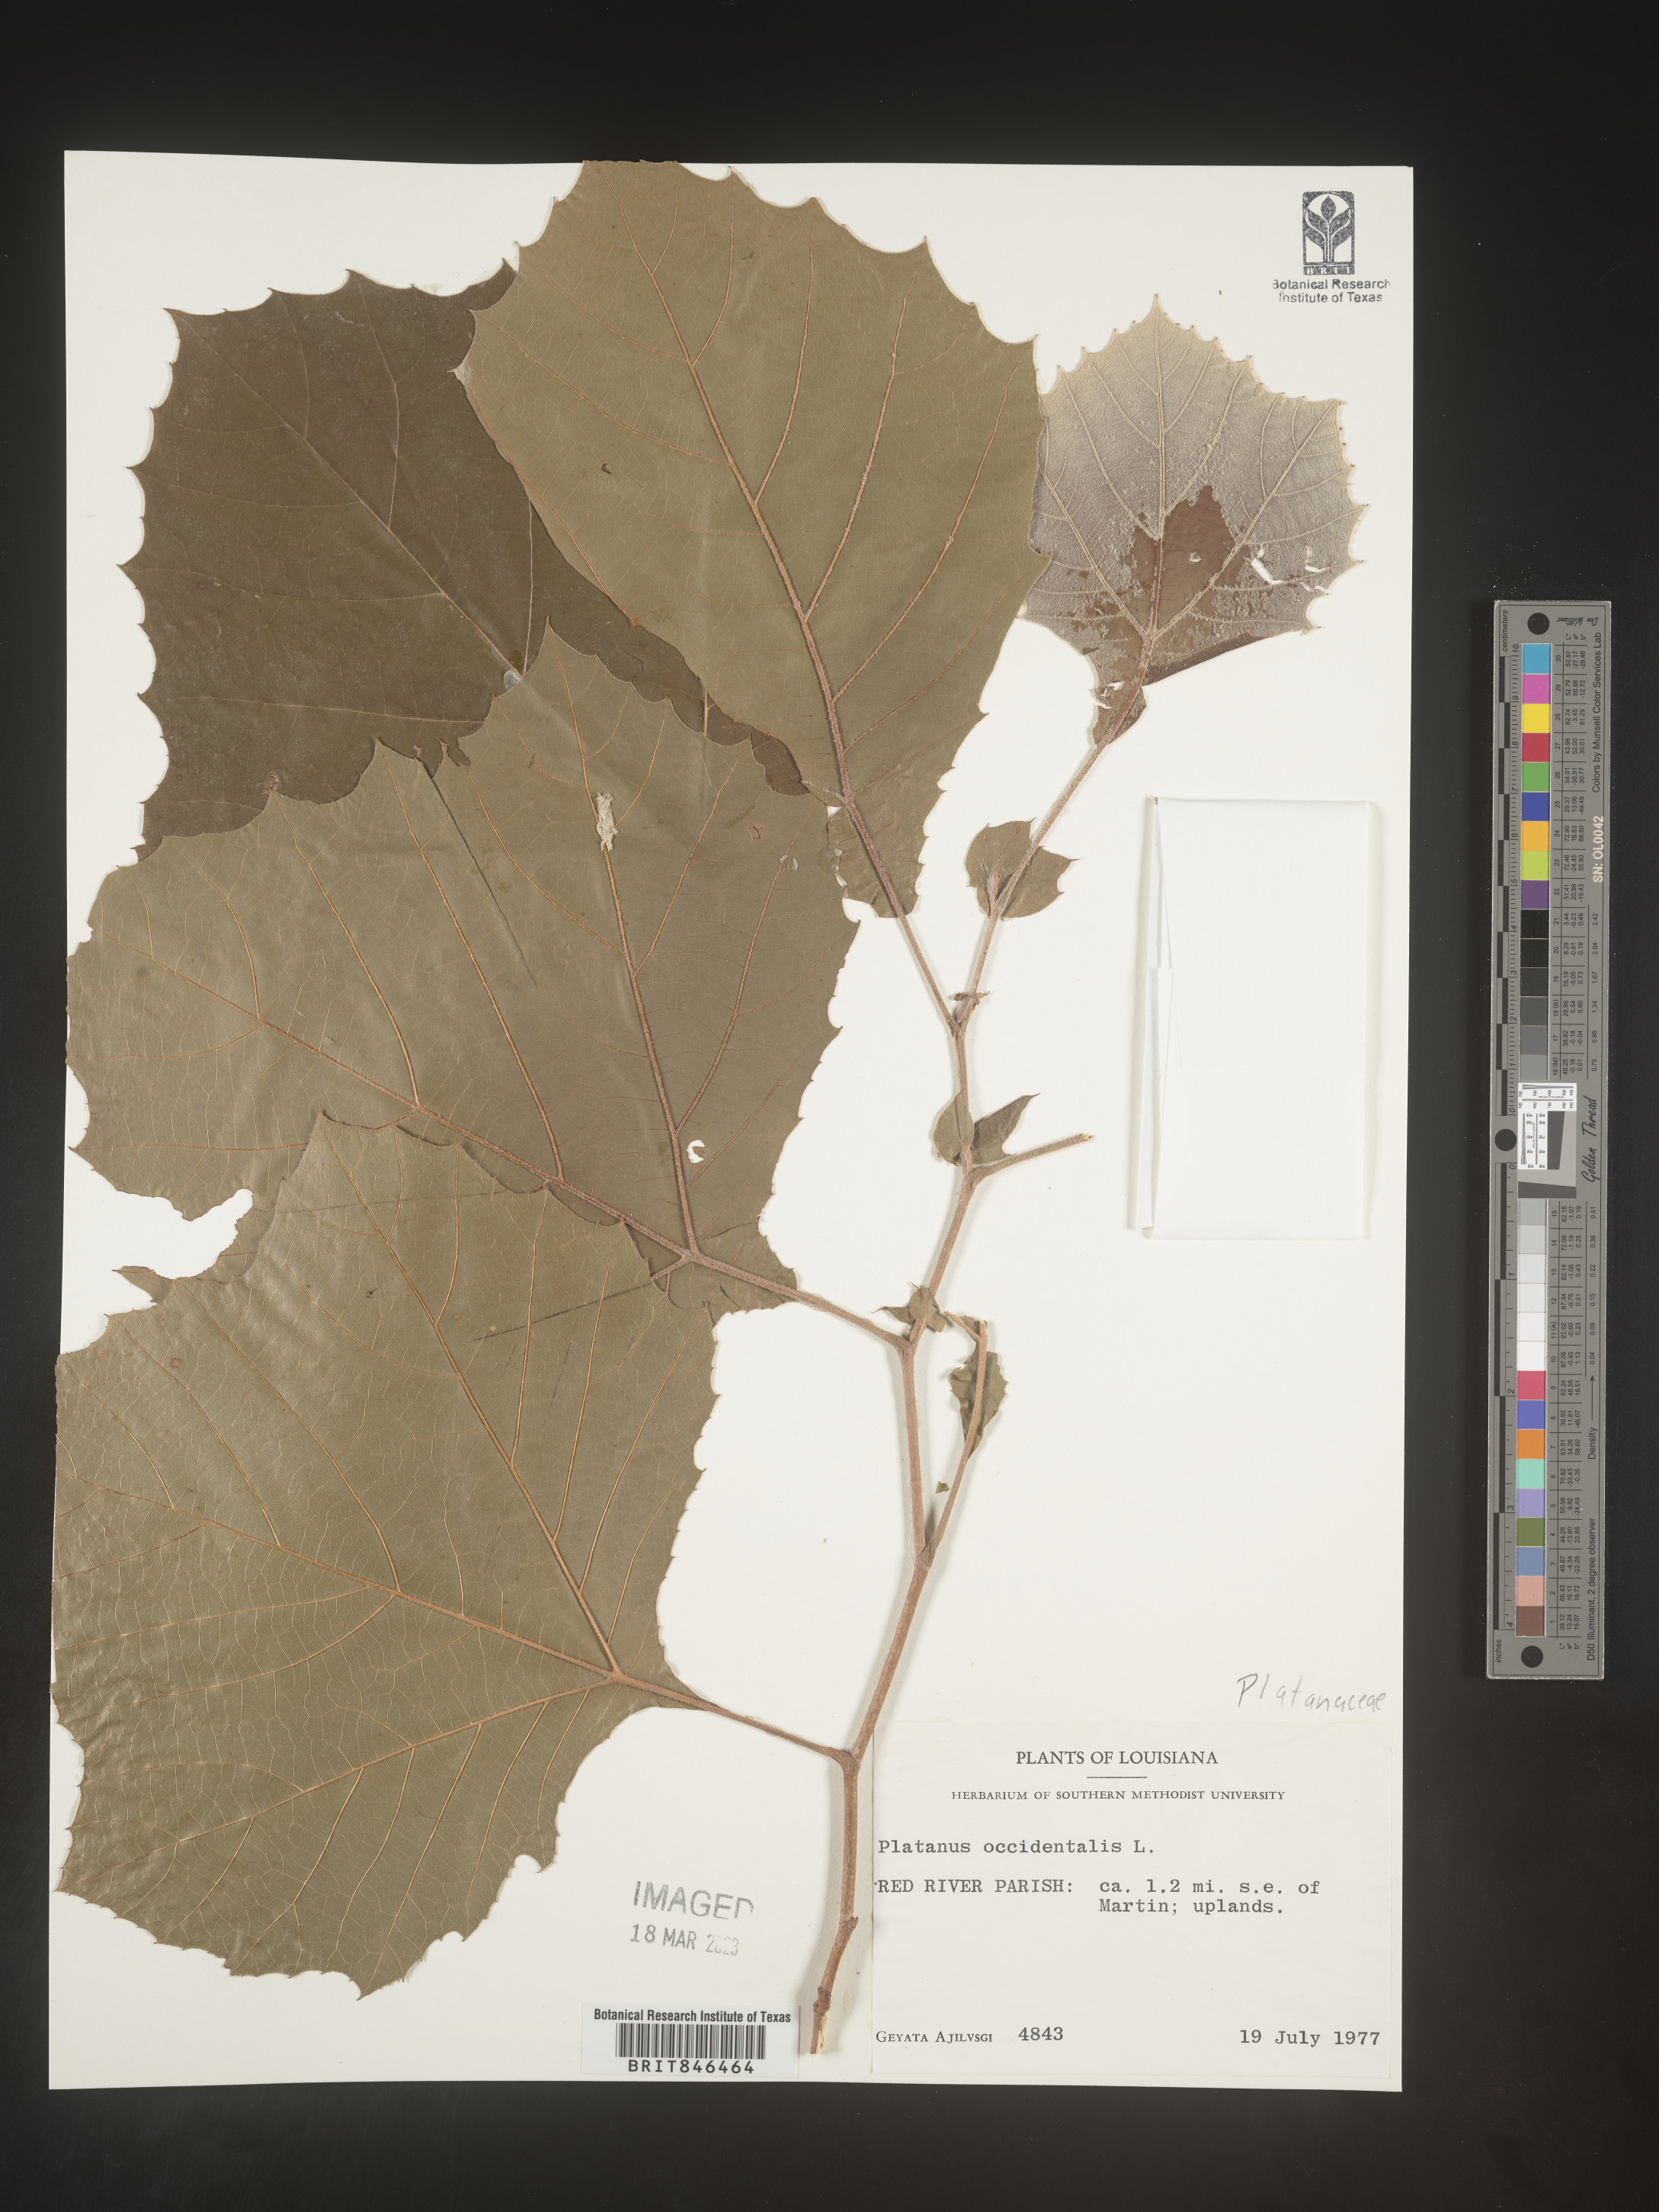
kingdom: Plantae
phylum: Tracheophyta
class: Magnoliopsida
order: Proteales
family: Platanaceae
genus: Platanus
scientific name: Platanus occidentalis
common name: American sycamore
